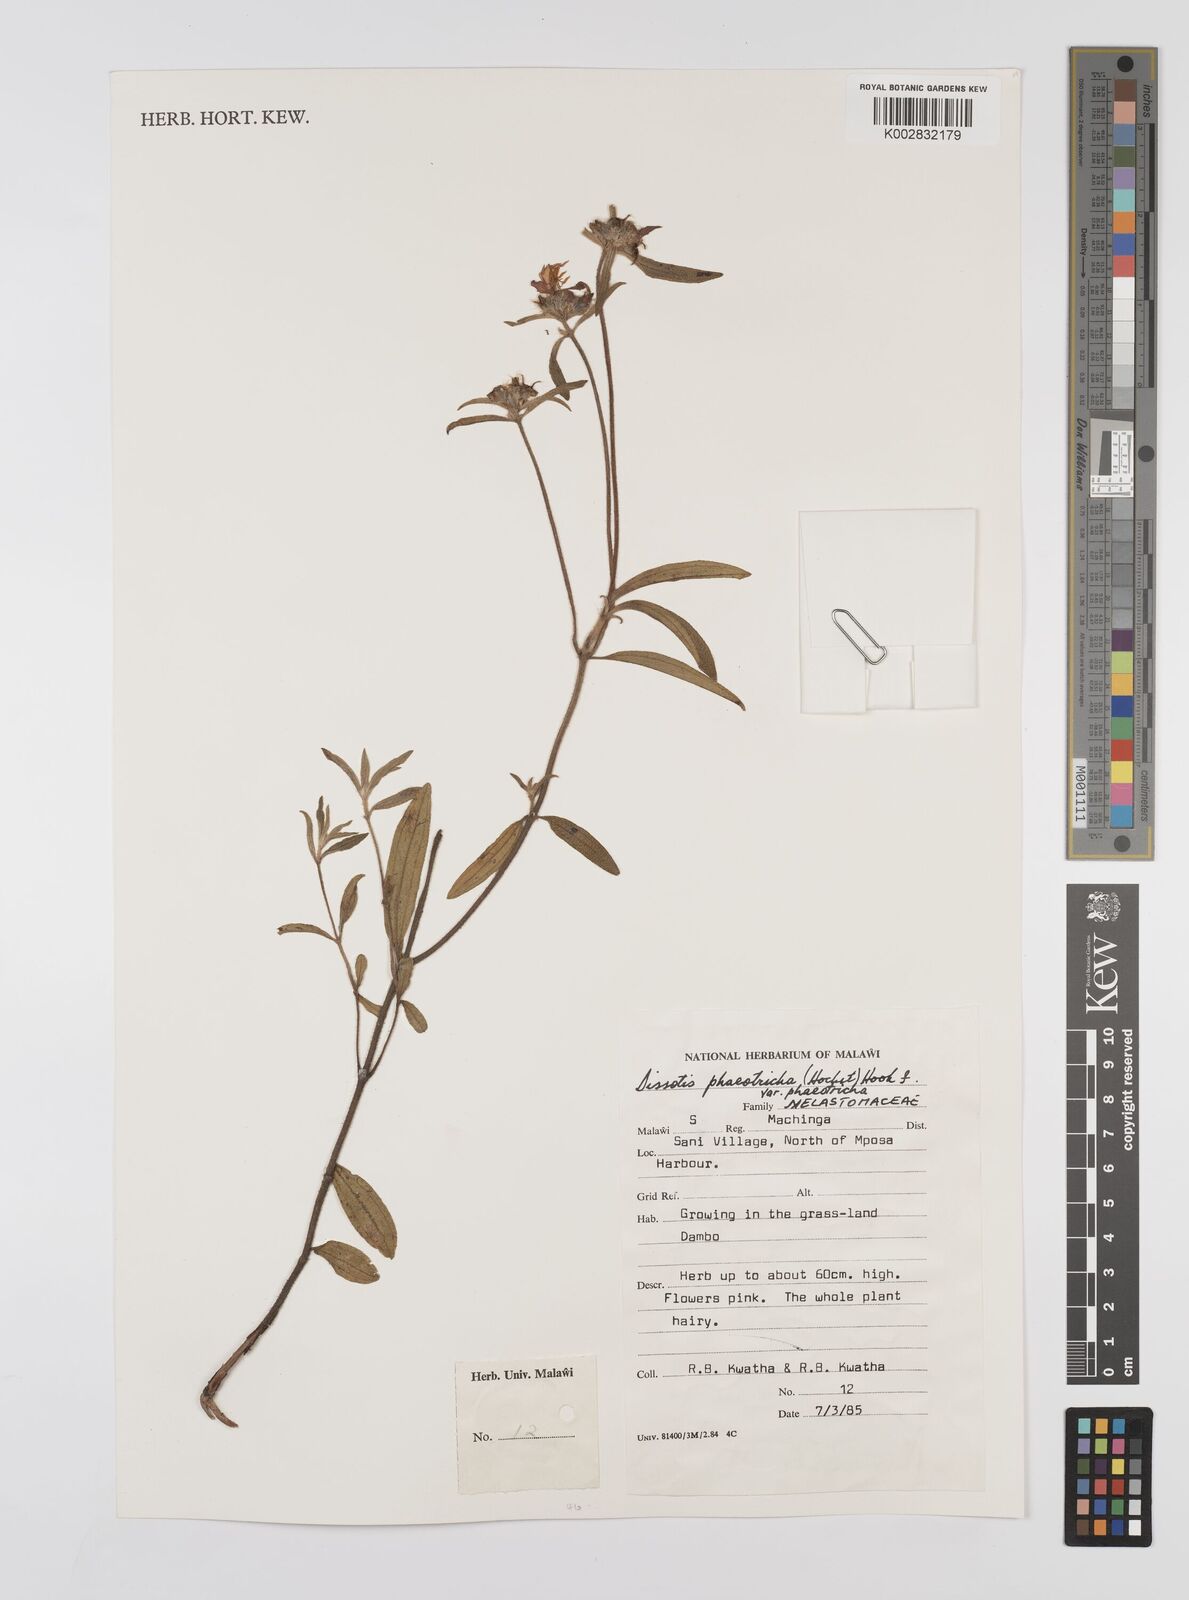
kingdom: Plantae
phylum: Tracheophyta
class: Magnoliopsida
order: Myrtales
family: Melastomataceae
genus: Antherotoma
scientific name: Antherotoma phaeotricha
